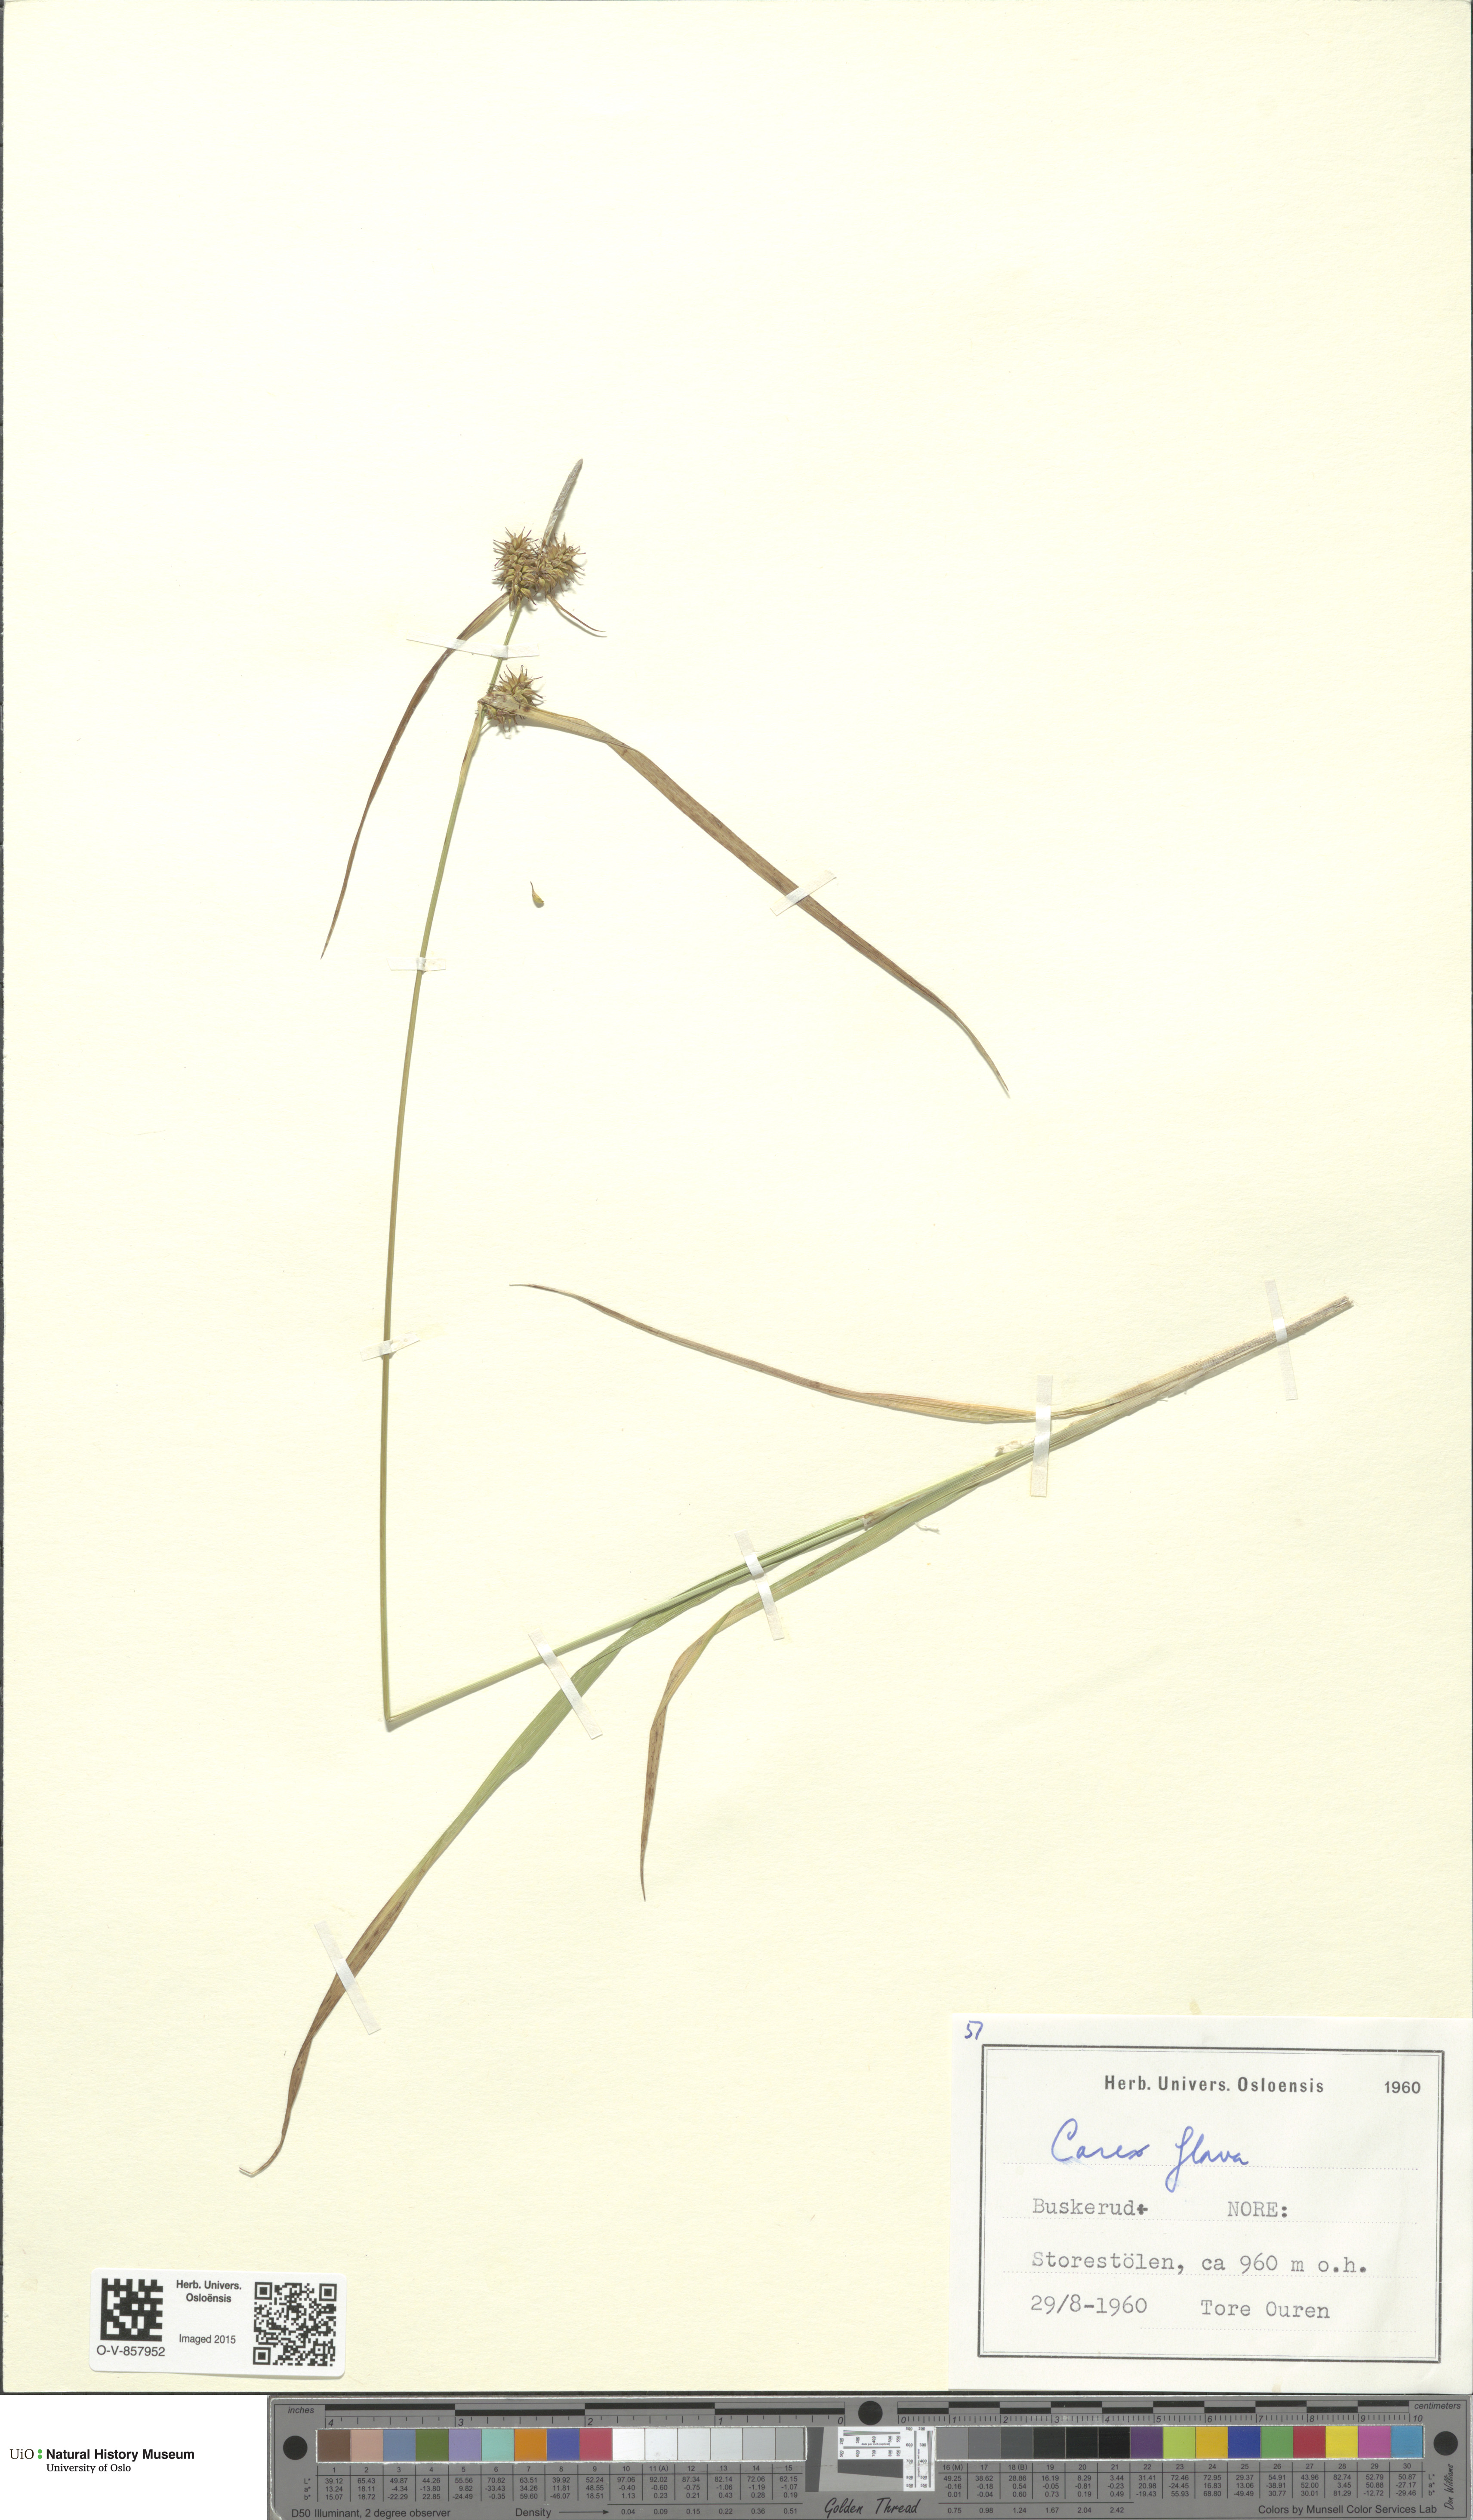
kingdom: Plantae
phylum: Tracheophyta
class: Liliopsida
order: Poales
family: Cyperaceae
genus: Carex
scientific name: Carex flava
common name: Large yellow-sedge
